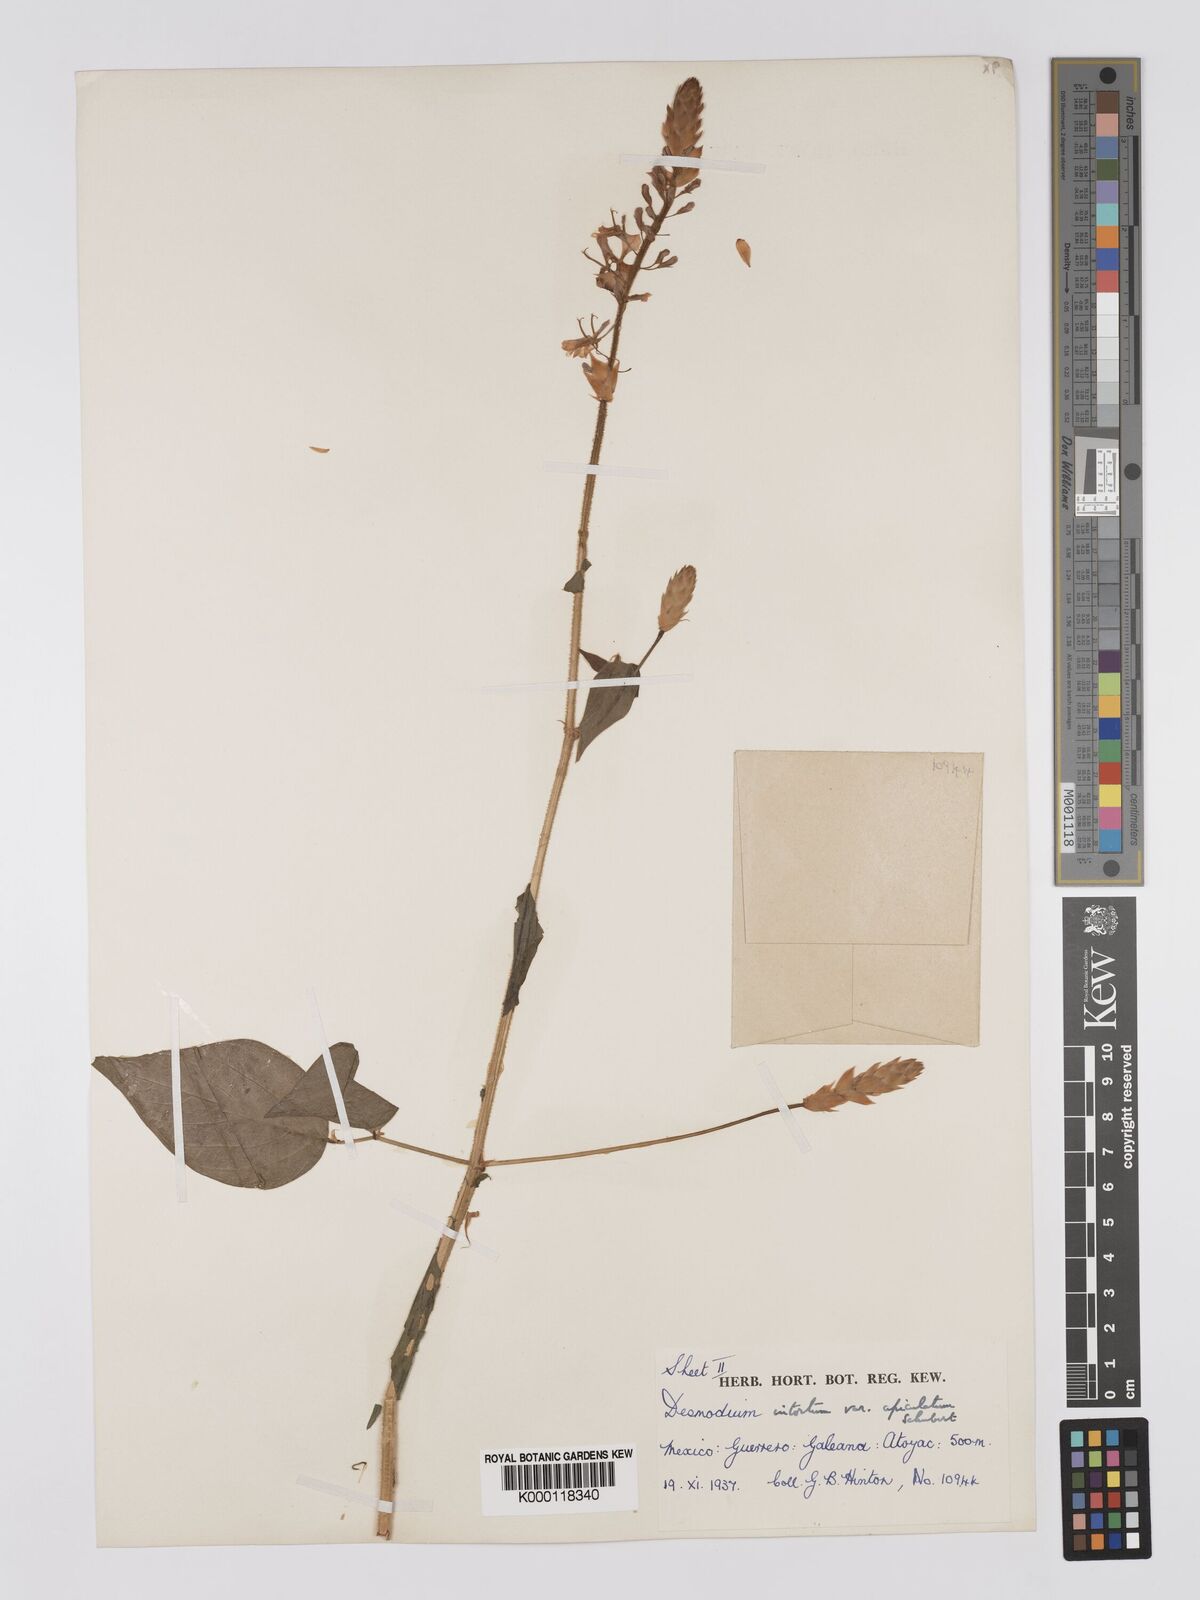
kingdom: Plantae
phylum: Tracheophyta
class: Magnoliopsida
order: Fabales
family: Fabaceae
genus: Desmodium
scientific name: Desmodium intortum
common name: Greenleaf ticktrefoil
